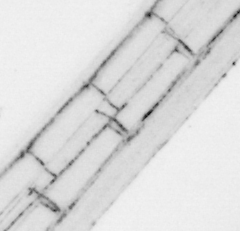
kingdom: Animalia
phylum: Chordata
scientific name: Chordata
